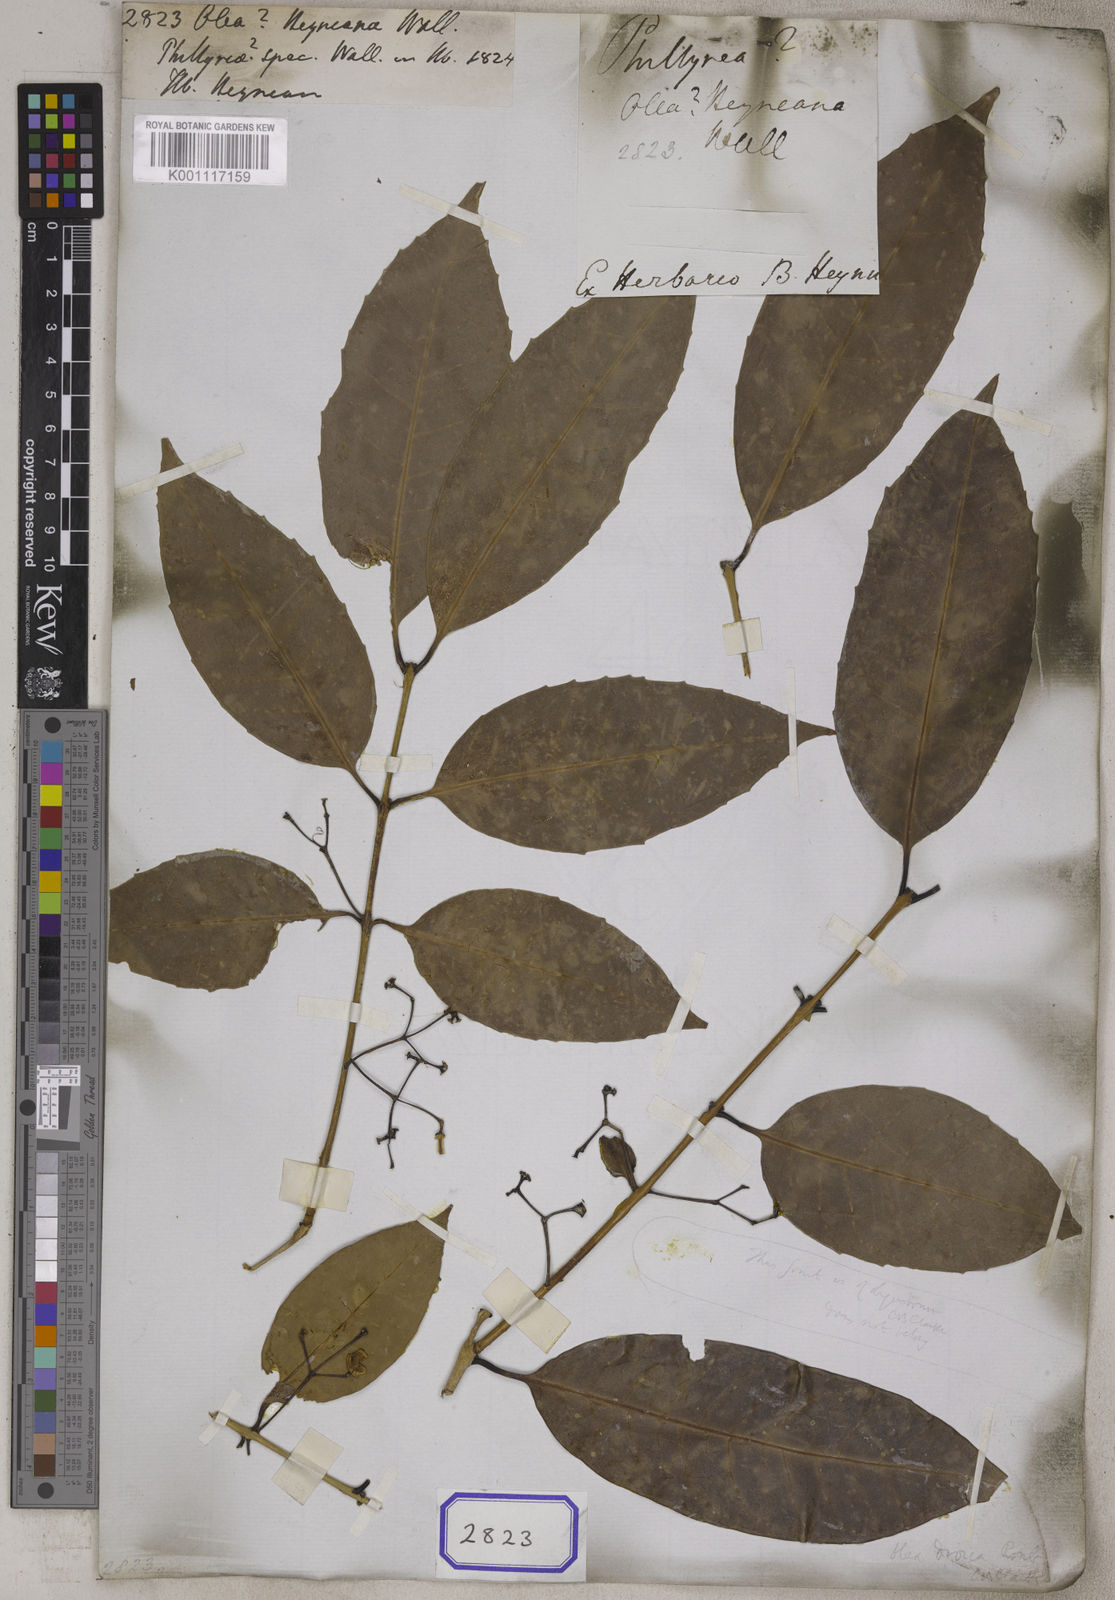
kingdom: Plantae
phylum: Tracheophyta
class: Magnoliopsida
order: Lamiales
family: Oleaceae
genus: Olea
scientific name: Olea
